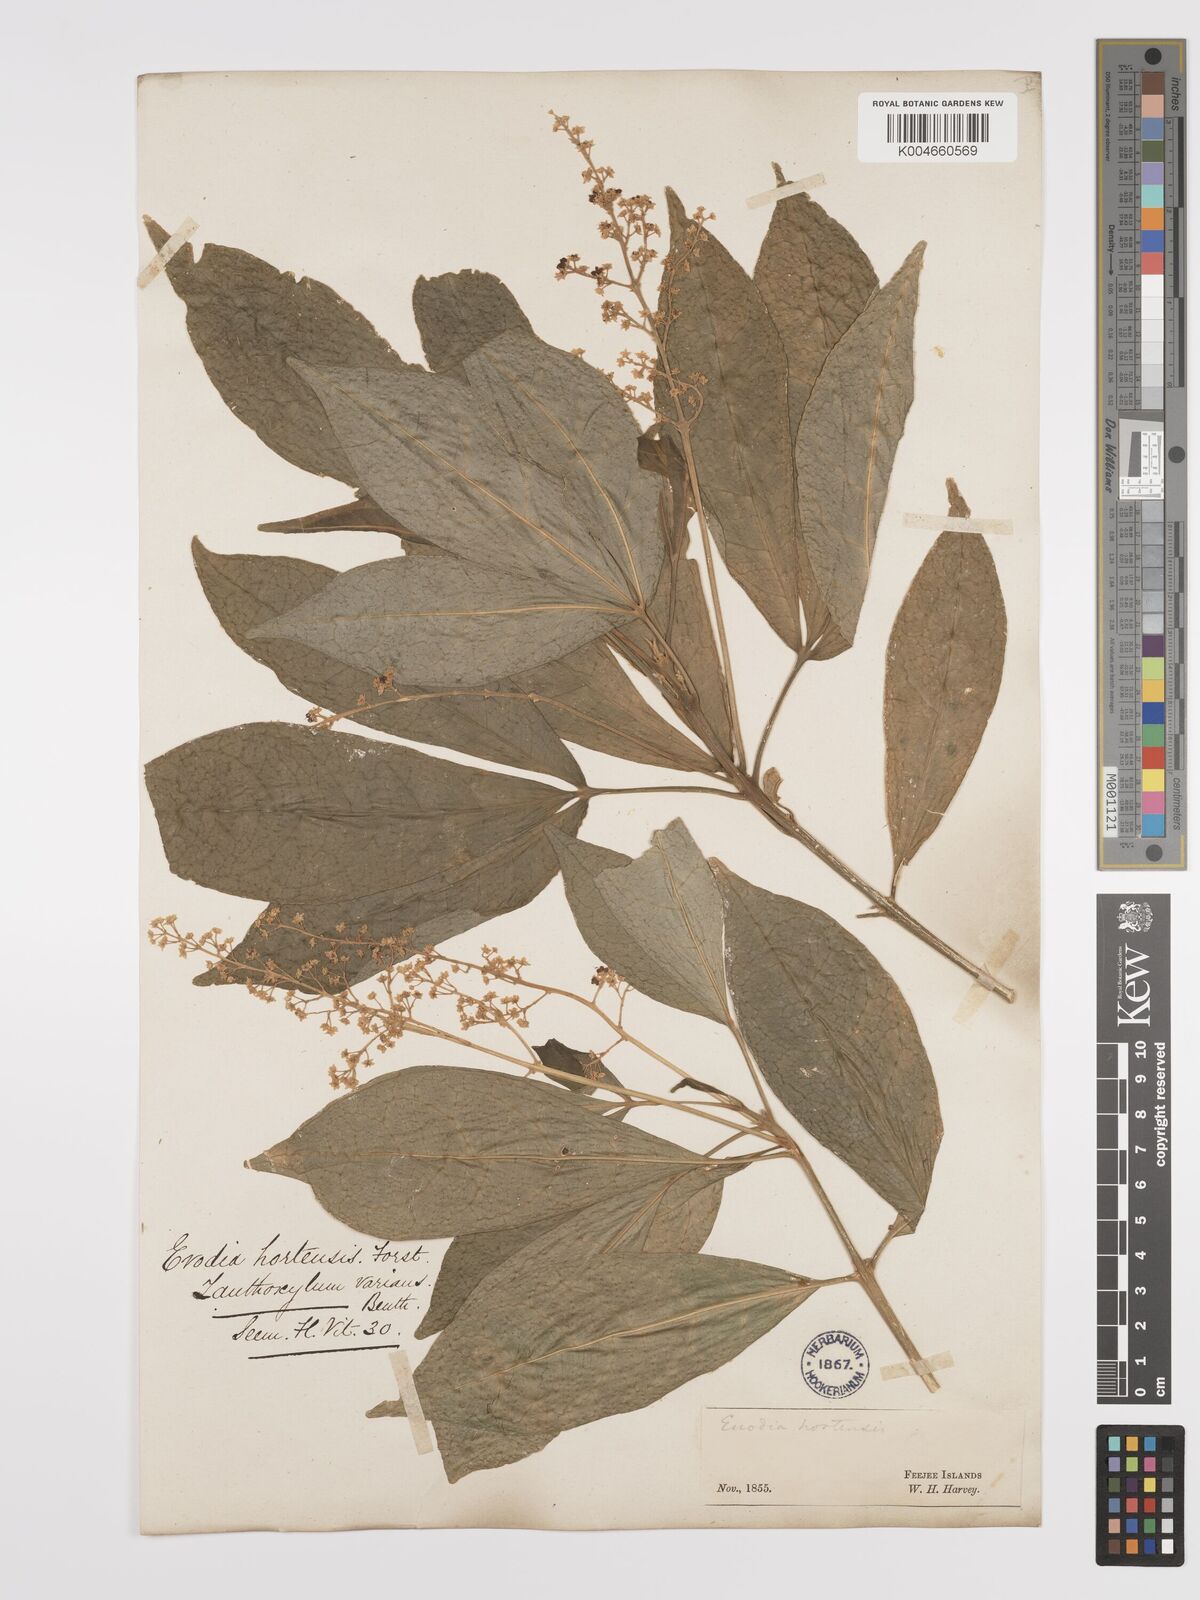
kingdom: Plantae
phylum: Tracheophyta
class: Magnoliopsida
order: Sapindales
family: Rutaceae
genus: Euodia
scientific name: Euodia hortensis
